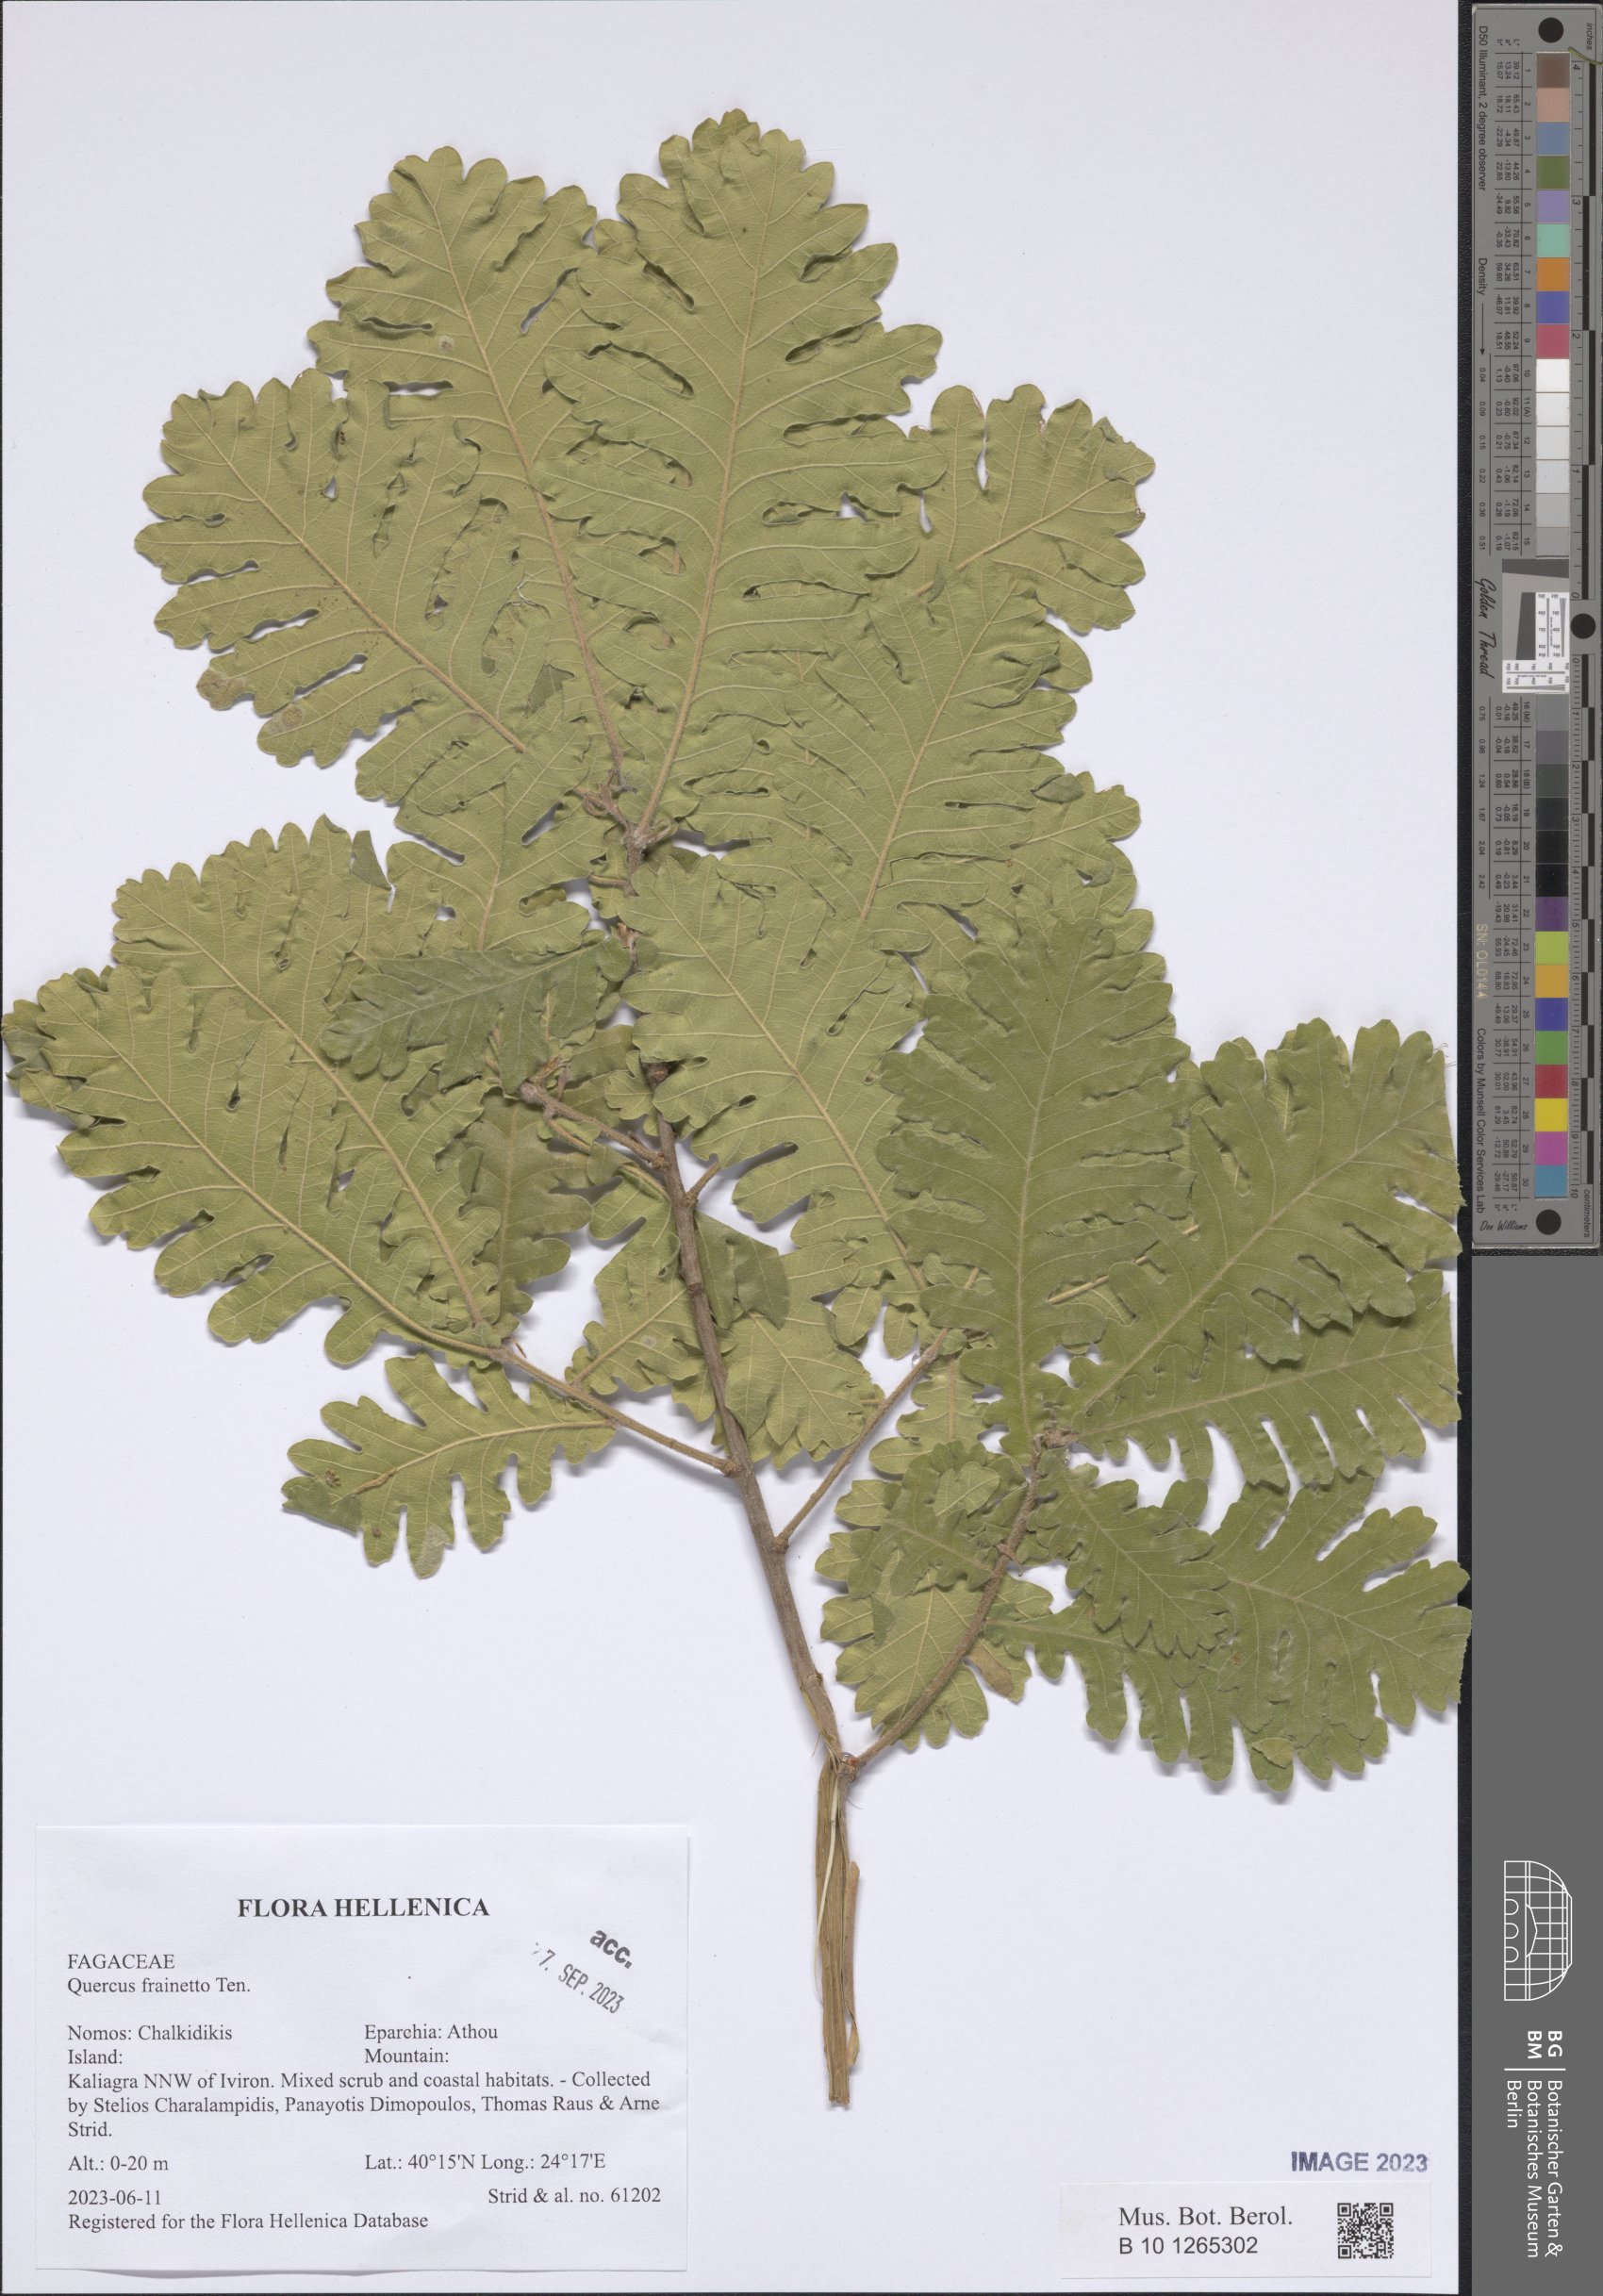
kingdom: Plantae
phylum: Tracheophyta
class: Magnoliopsida
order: Fagales
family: Fagaceae
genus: Quercus
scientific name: Quercus conferta
